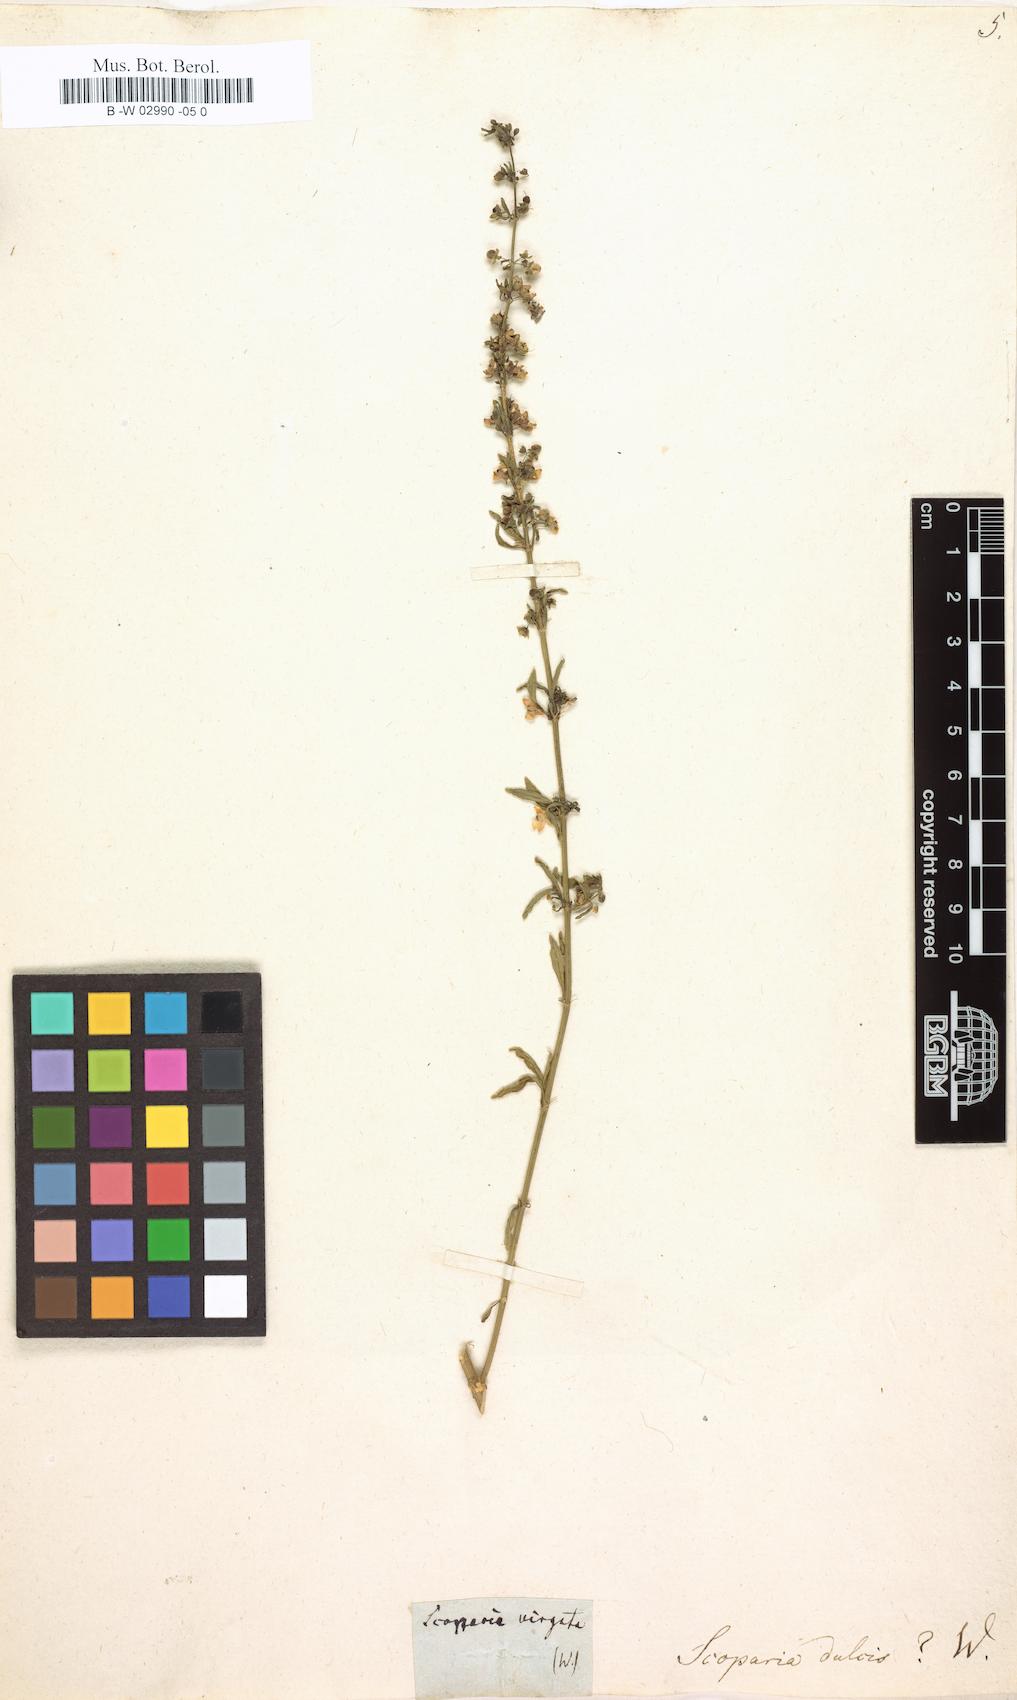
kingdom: Plantae
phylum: Tracheophyta
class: Magnoliopsida
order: Lamiales
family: Plantaginaceae
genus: Scoparia
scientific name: Scoparia dulcis
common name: Scoparia-weed
